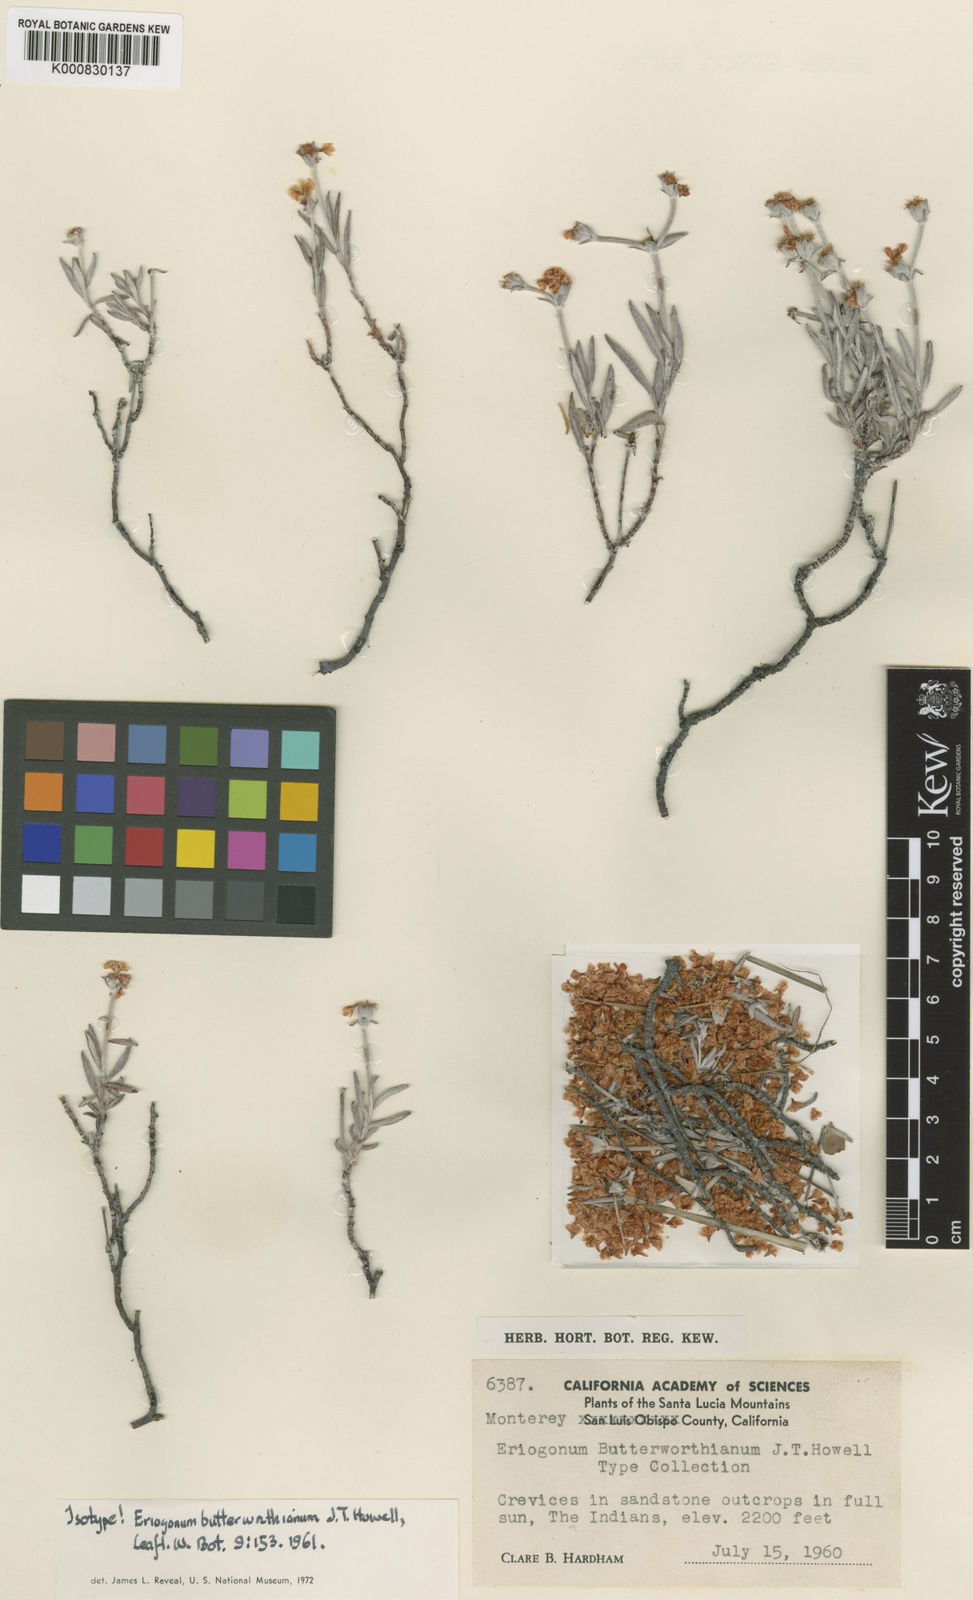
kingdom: Plantae
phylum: Tracheophyta
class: Magnoliopsida
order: Caryophyllales
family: Polygonaceae
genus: Eriogonum
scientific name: Eriogonum butterworthianum
